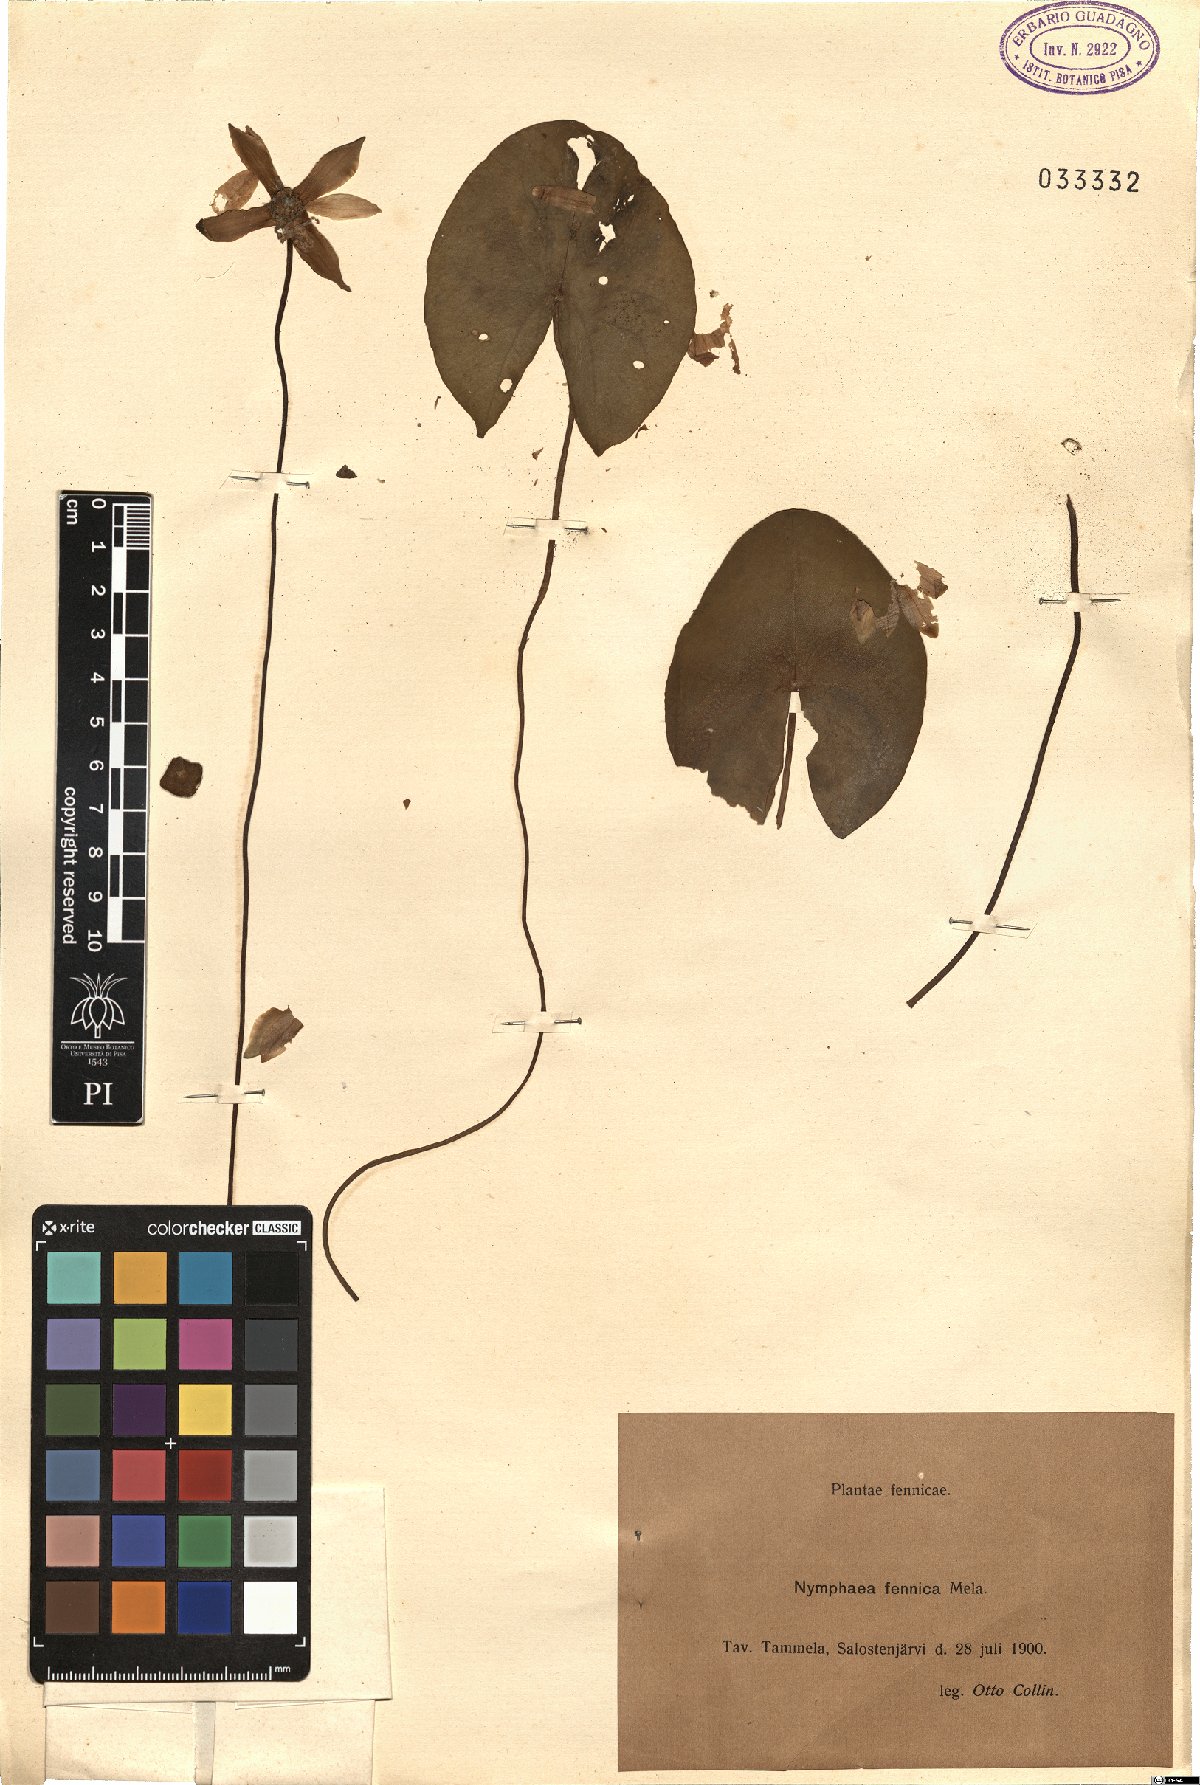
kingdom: Plantae
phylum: Tracheophyta
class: Magnoliopsida
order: Nymphaeales
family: Nymphaeaceae
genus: Nymphaea
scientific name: Nymphaea tetragona
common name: Pygmy water-lily
